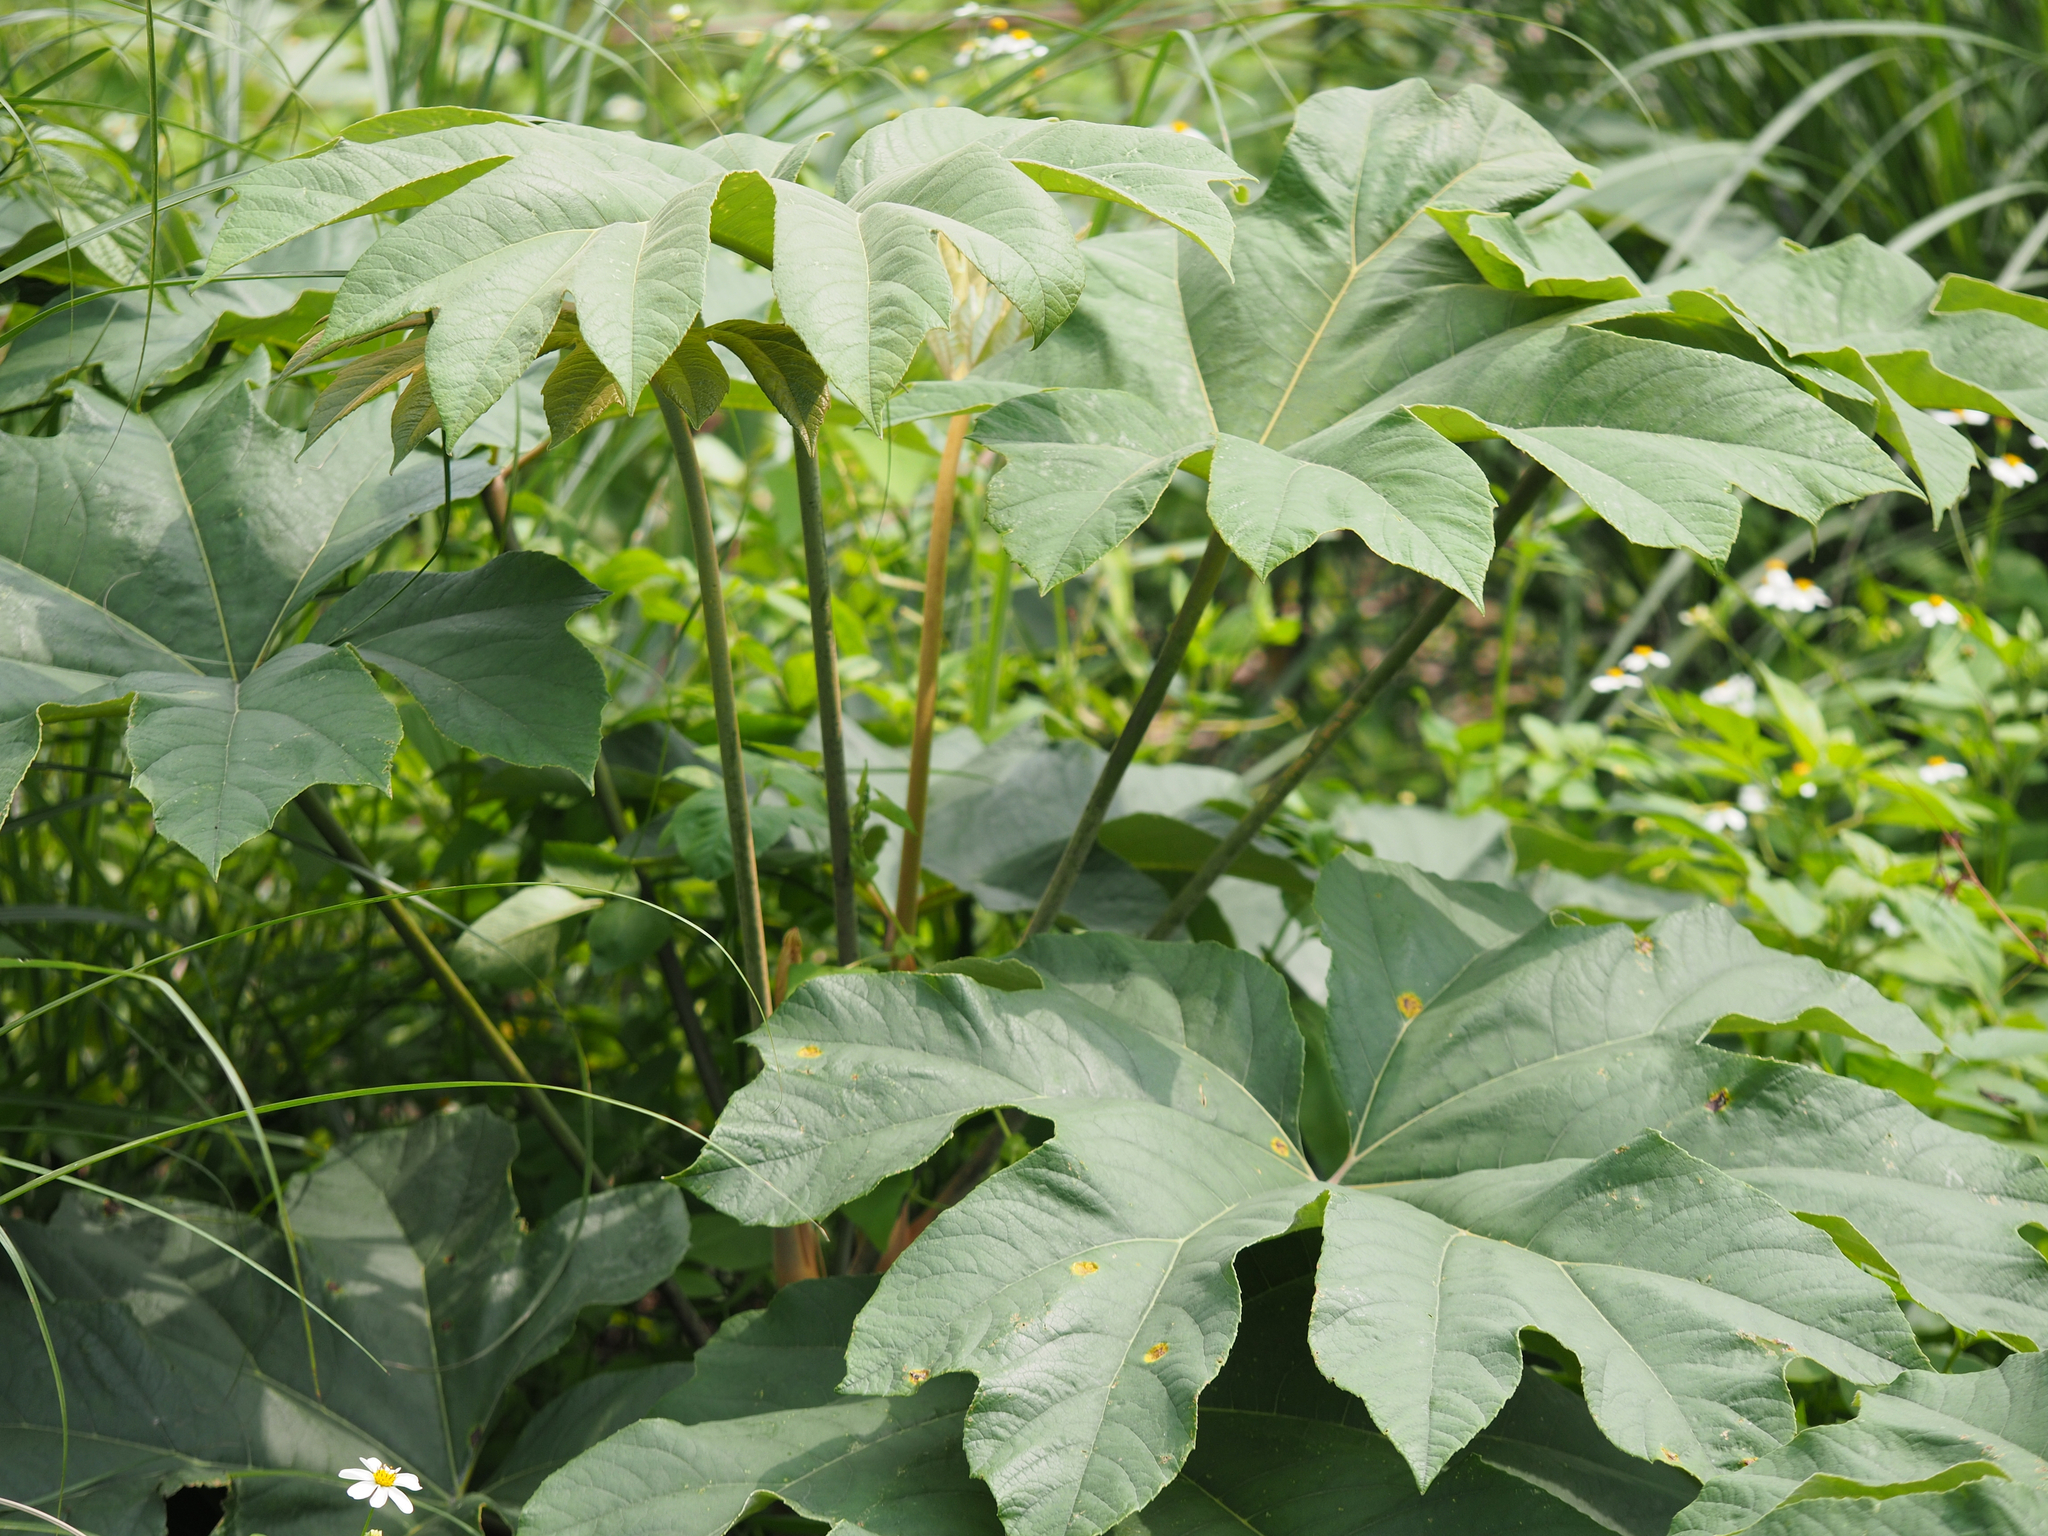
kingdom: Plantae
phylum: Tracheophyta
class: Magnoliopsida
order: Apiales
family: Araliaceae
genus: Tetrapanax
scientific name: Tetrapanax papyrifer
